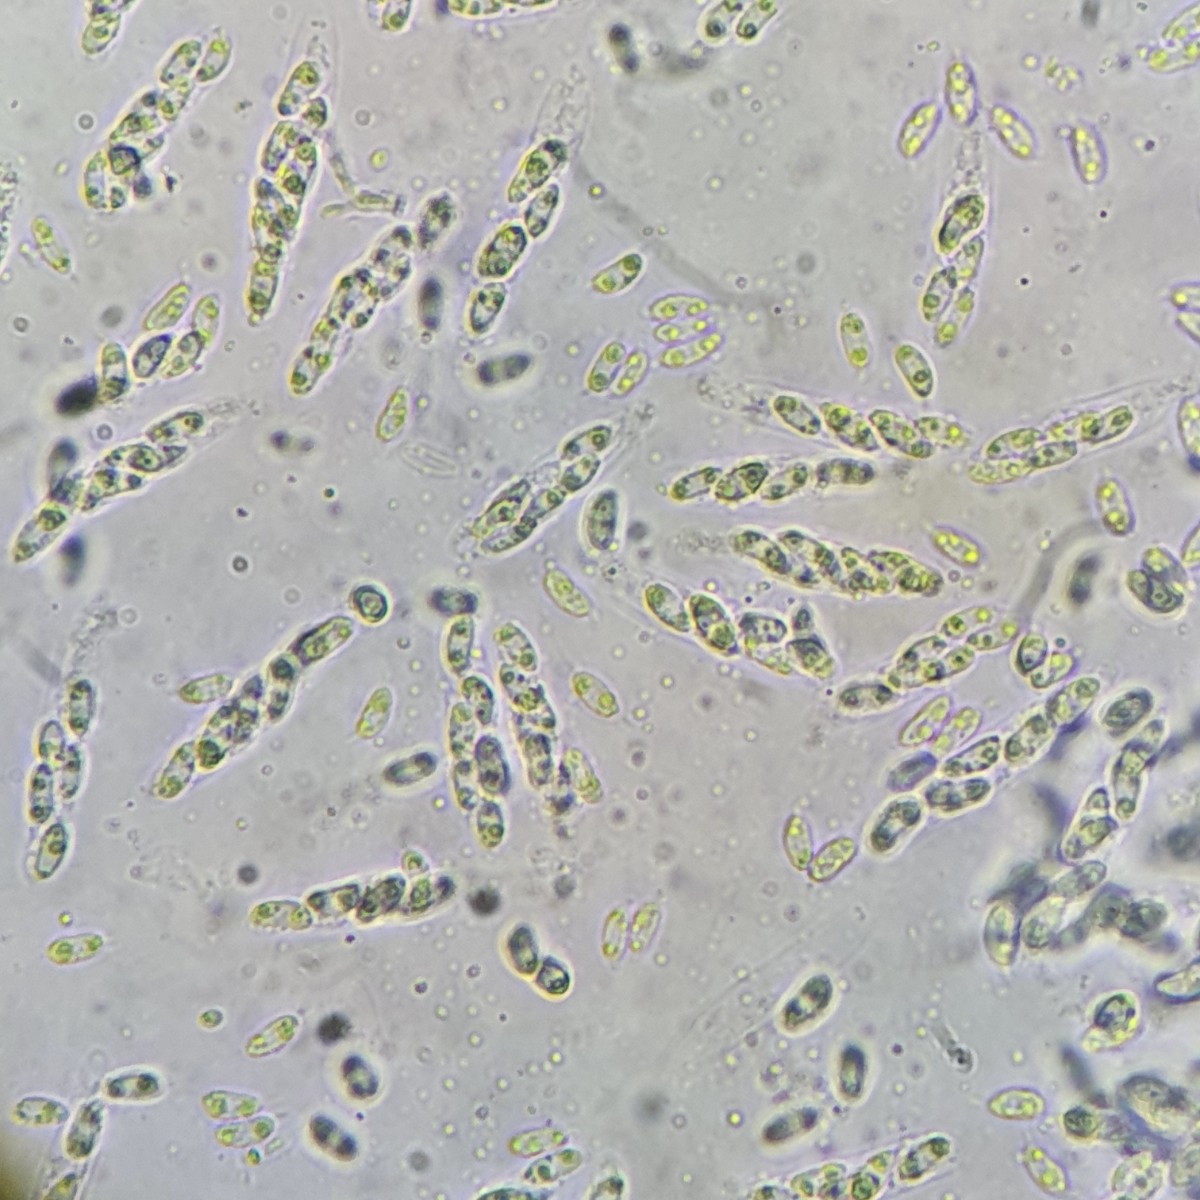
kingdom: Fungi
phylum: Ascomycota
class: Sordariomycetes
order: Diaporthales
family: Gnomoniaceae
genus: Gnomoniella
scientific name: Gnomoniella rubicola
